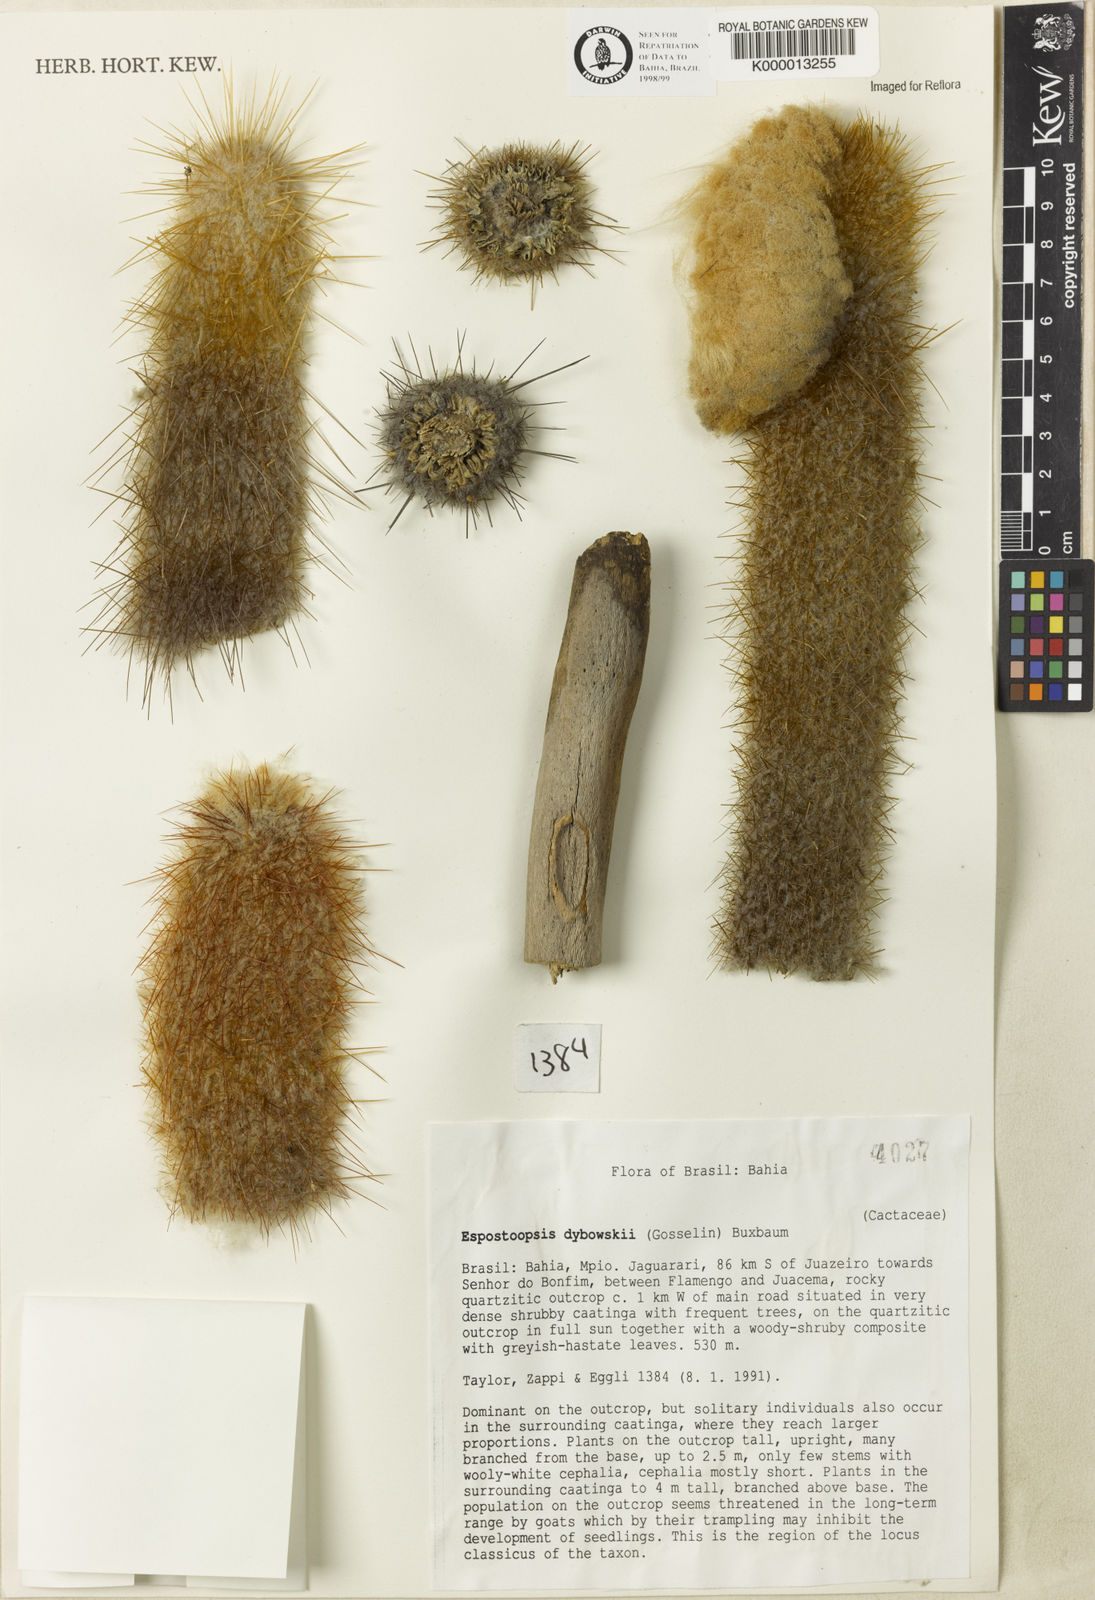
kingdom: Plantae
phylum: Tracheophyta
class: Magnoliopsida
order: Caryophyllales
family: Cactaceae
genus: Espostoopsis
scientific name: Espostoopsis dybowskii
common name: Cabega
